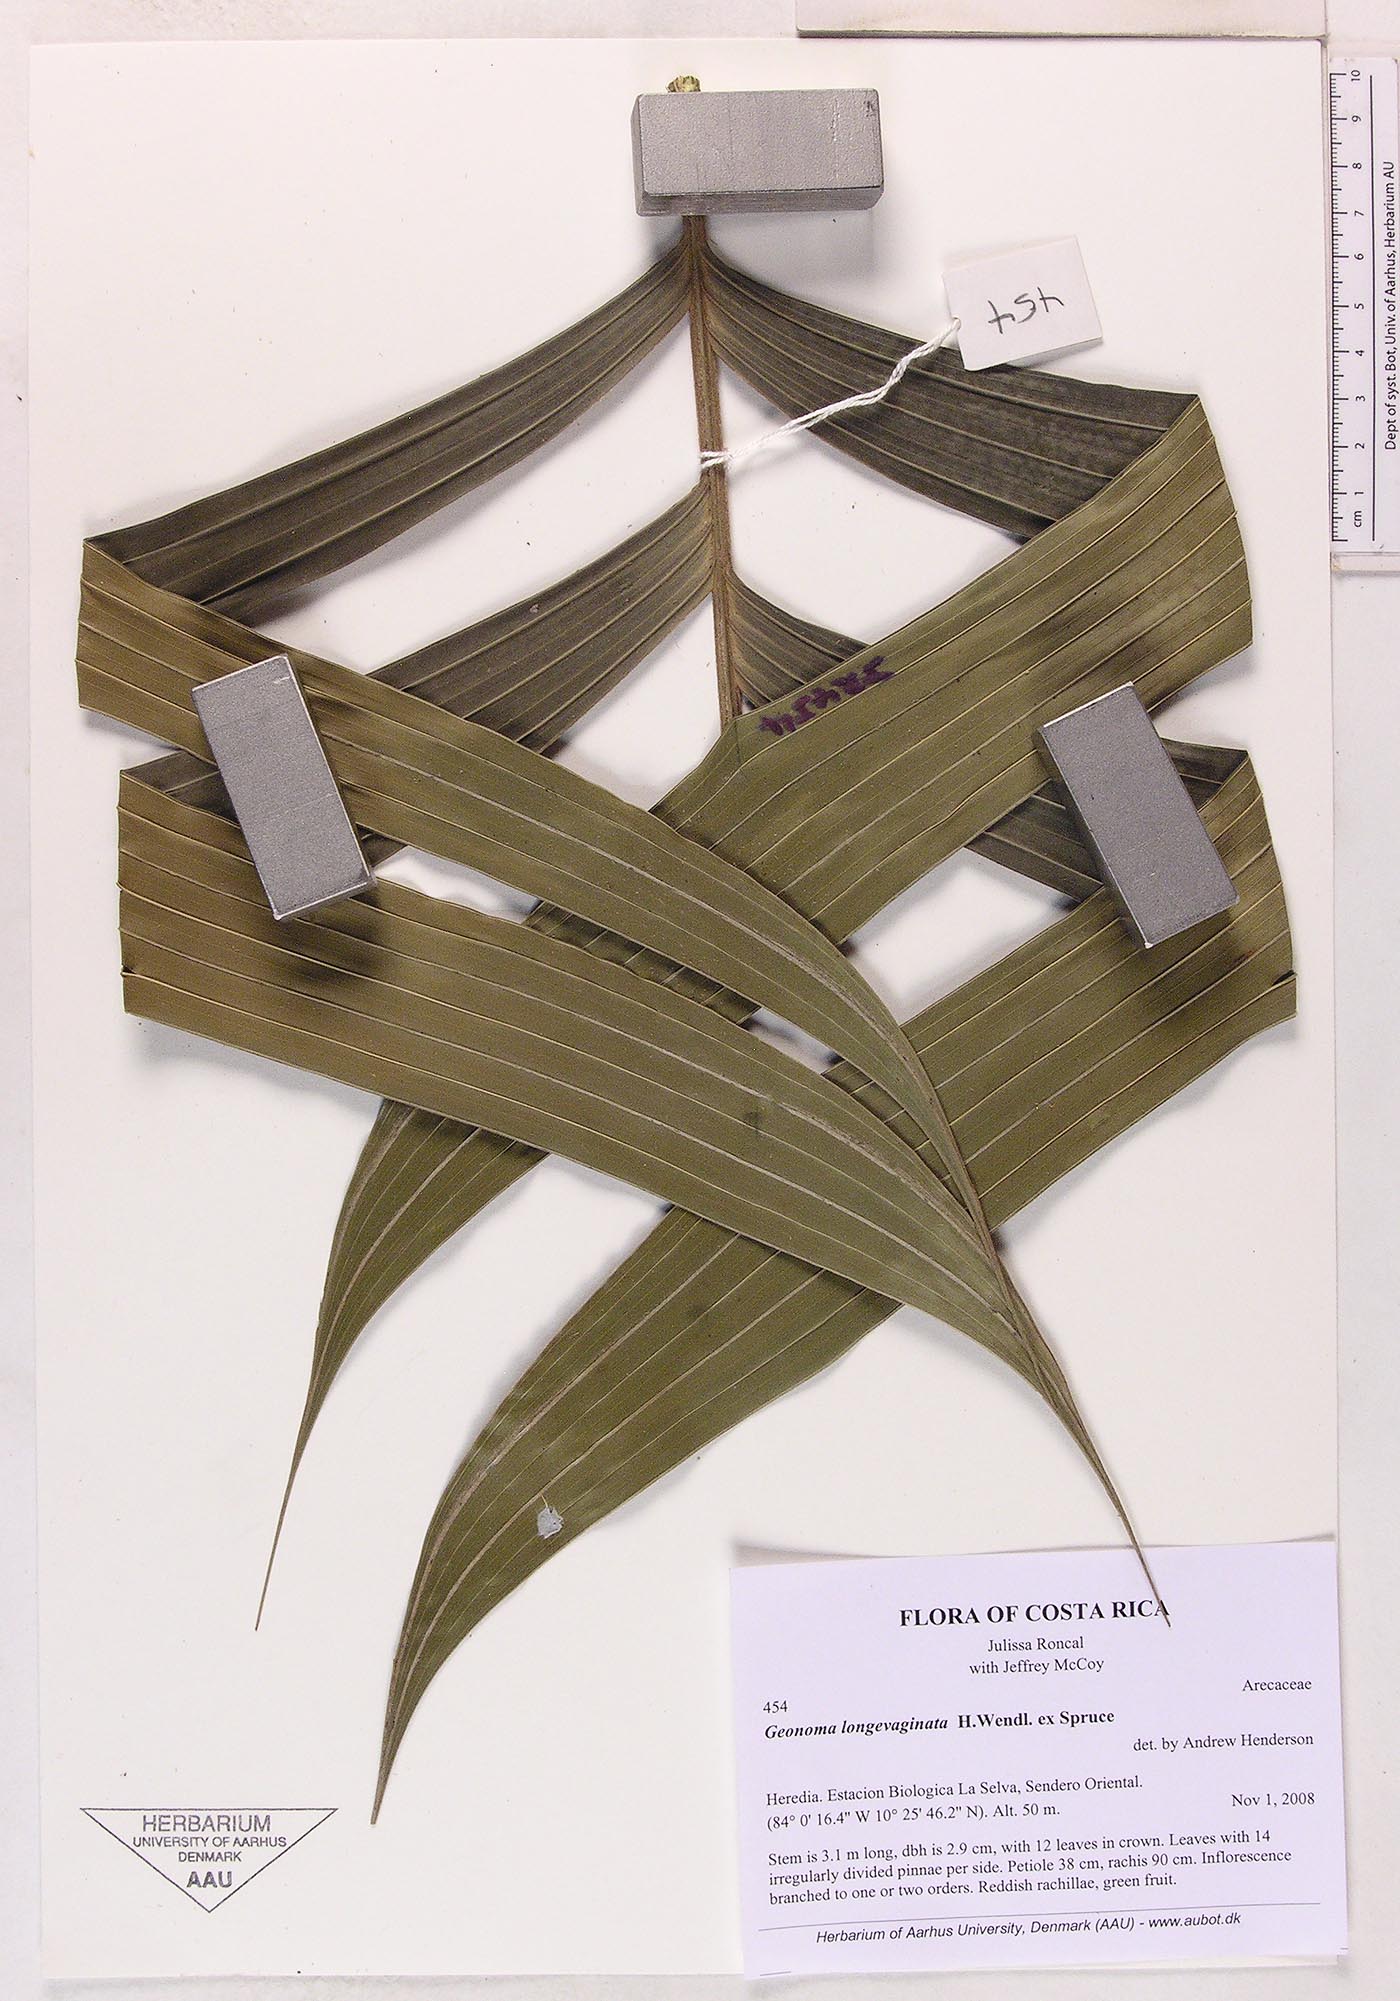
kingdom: Plantae
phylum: Tracheophyta
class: Liliopsida
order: Arecales
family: Arecaceae
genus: Geonoma
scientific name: Geonoma longivaginata
